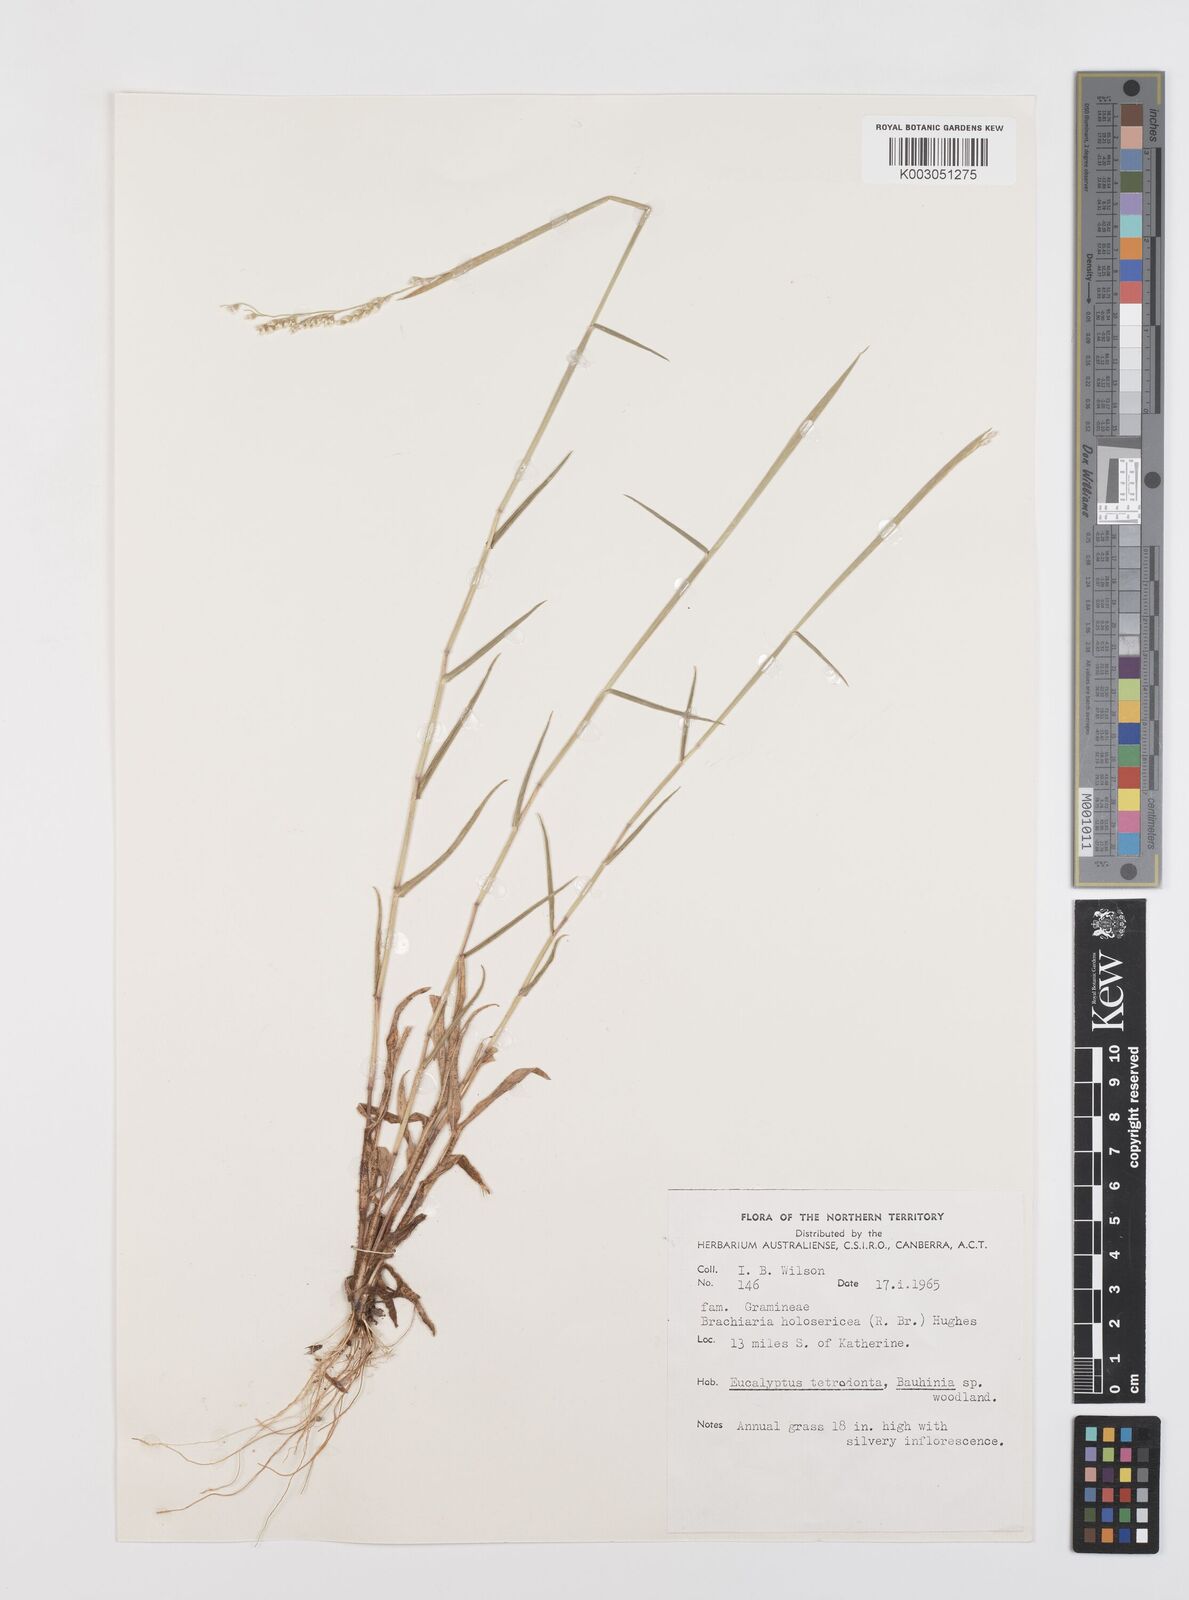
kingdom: Plantae
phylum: Tracheophyta
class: Liliopsida
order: Poales
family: Poaceae
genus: Urochloa
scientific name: Urochloa holosericea
